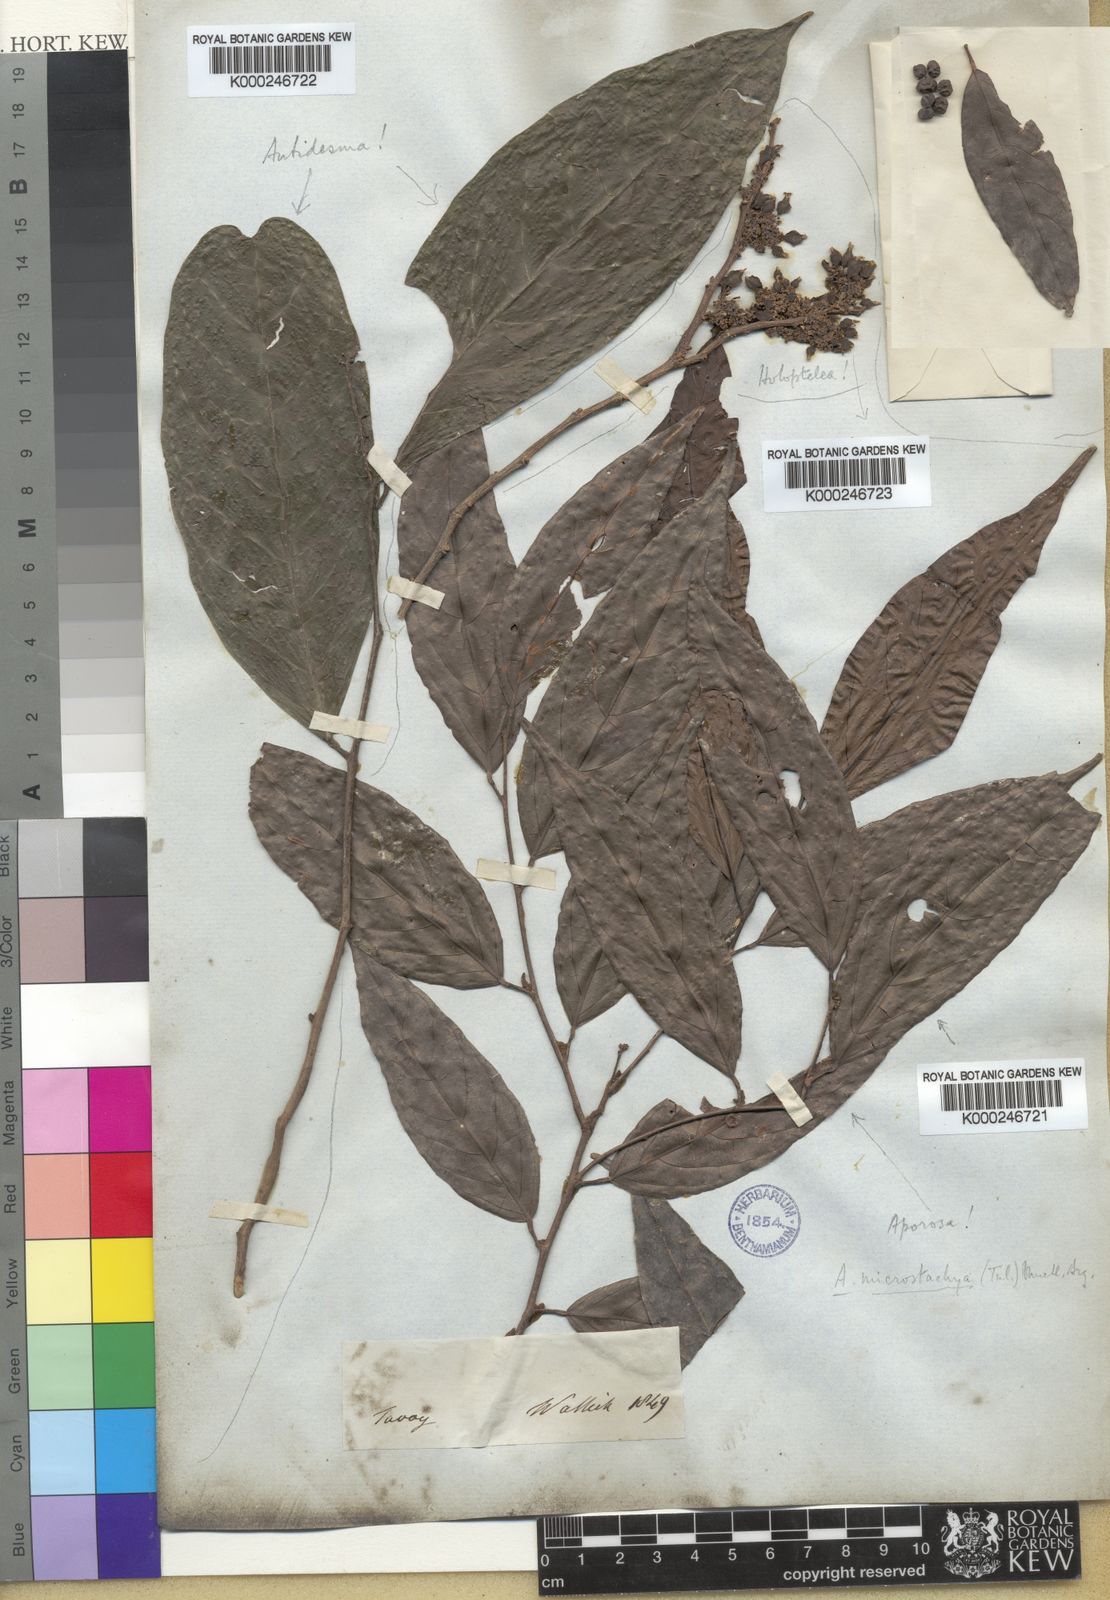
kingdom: Plantae
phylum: Tracheophyta
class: Magnoliopsida
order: Malpighiales
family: Phyllanthaceae
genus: Aporosa
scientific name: Aporosa
